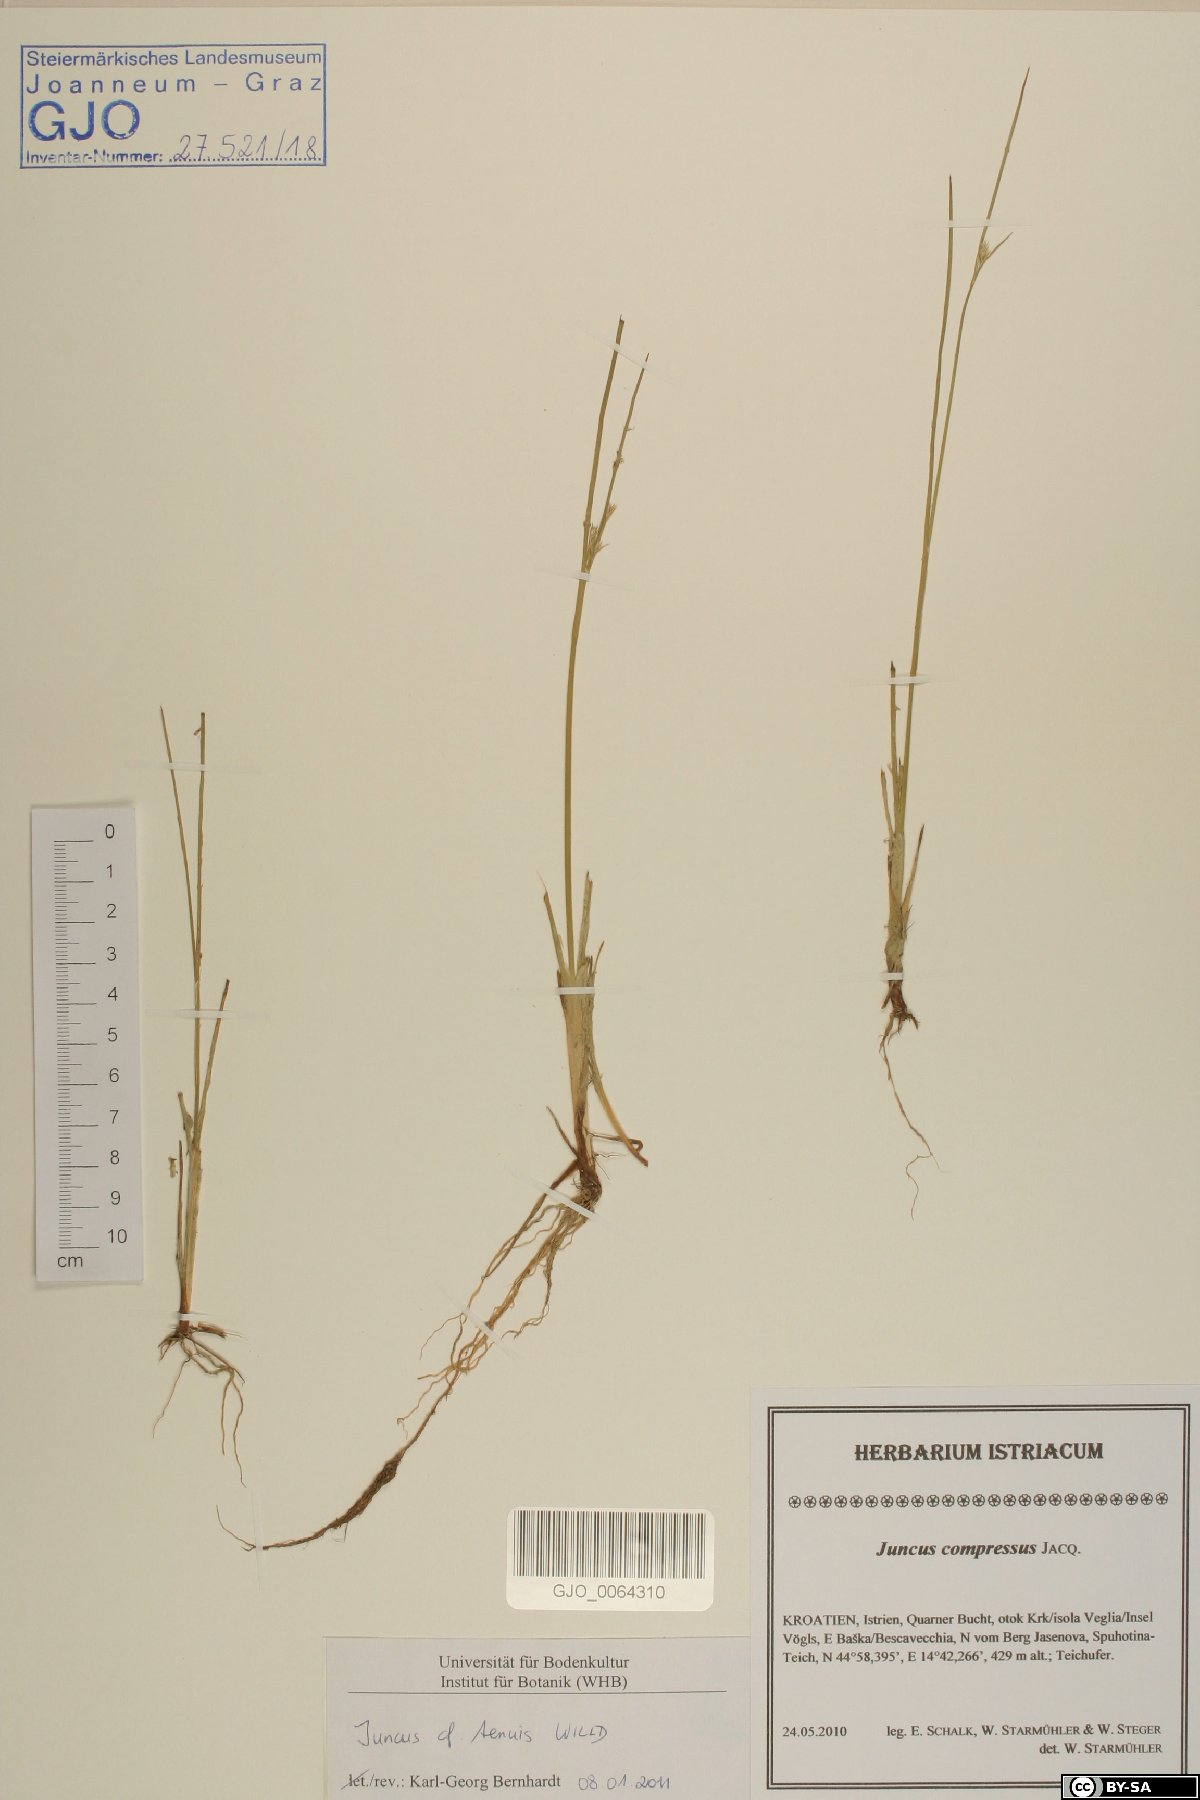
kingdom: Plantae
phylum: Tracheophyta
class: Liliopsida
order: Poales
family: Juncaceae
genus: Juncus
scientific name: Juncus tenuis
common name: Slender rush
